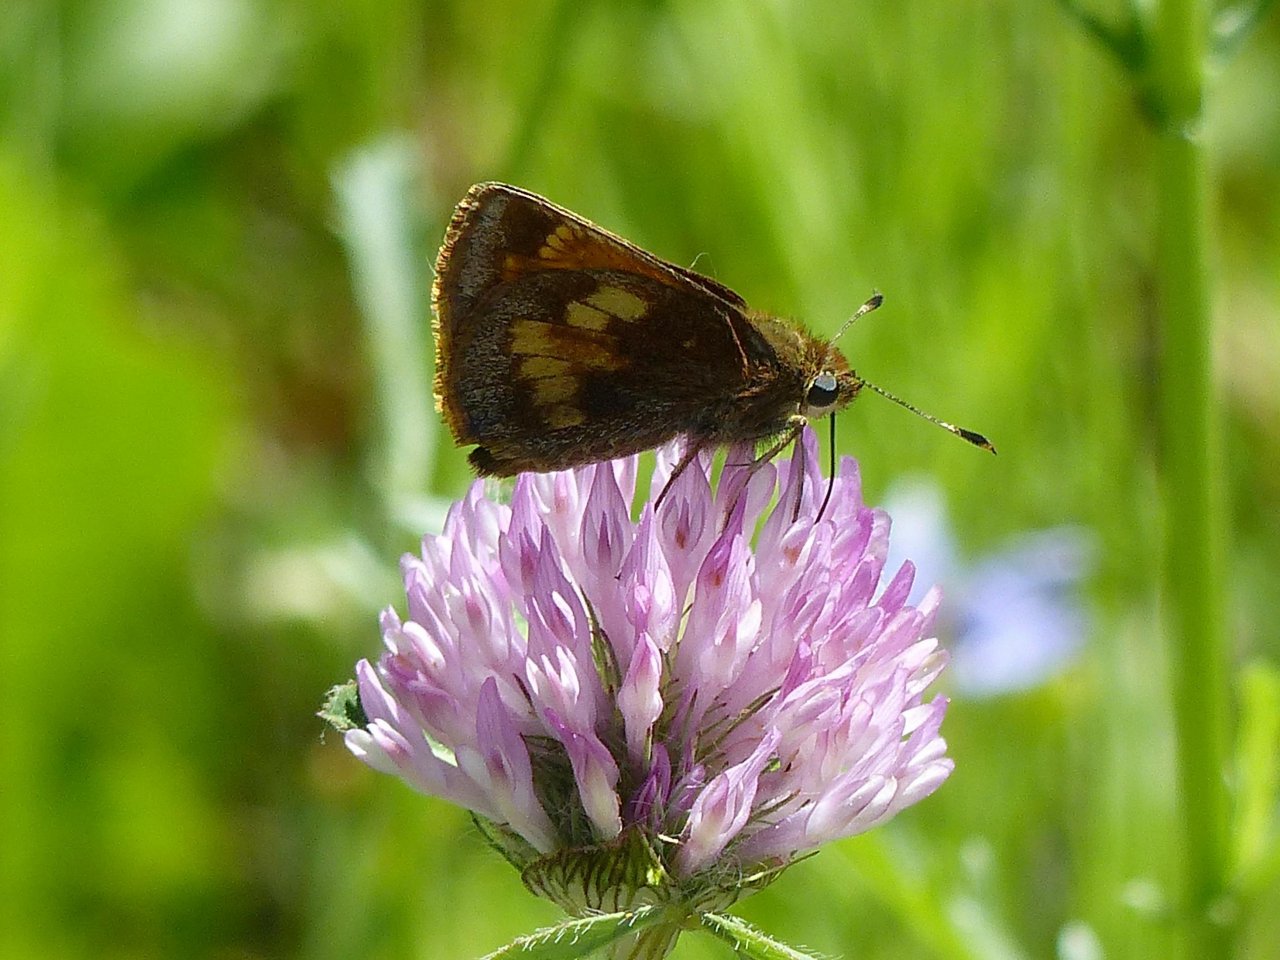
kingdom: Animalia
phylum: Arthropoda
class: Insecta
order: Lepidoptera
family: Hesperiidae
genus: Lon
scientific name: Lon hobomok
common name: Hobomok Skipper
